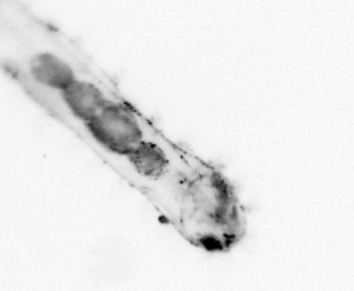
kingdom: Animalia
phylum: Chaetognatha
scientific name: Chaetognatha
